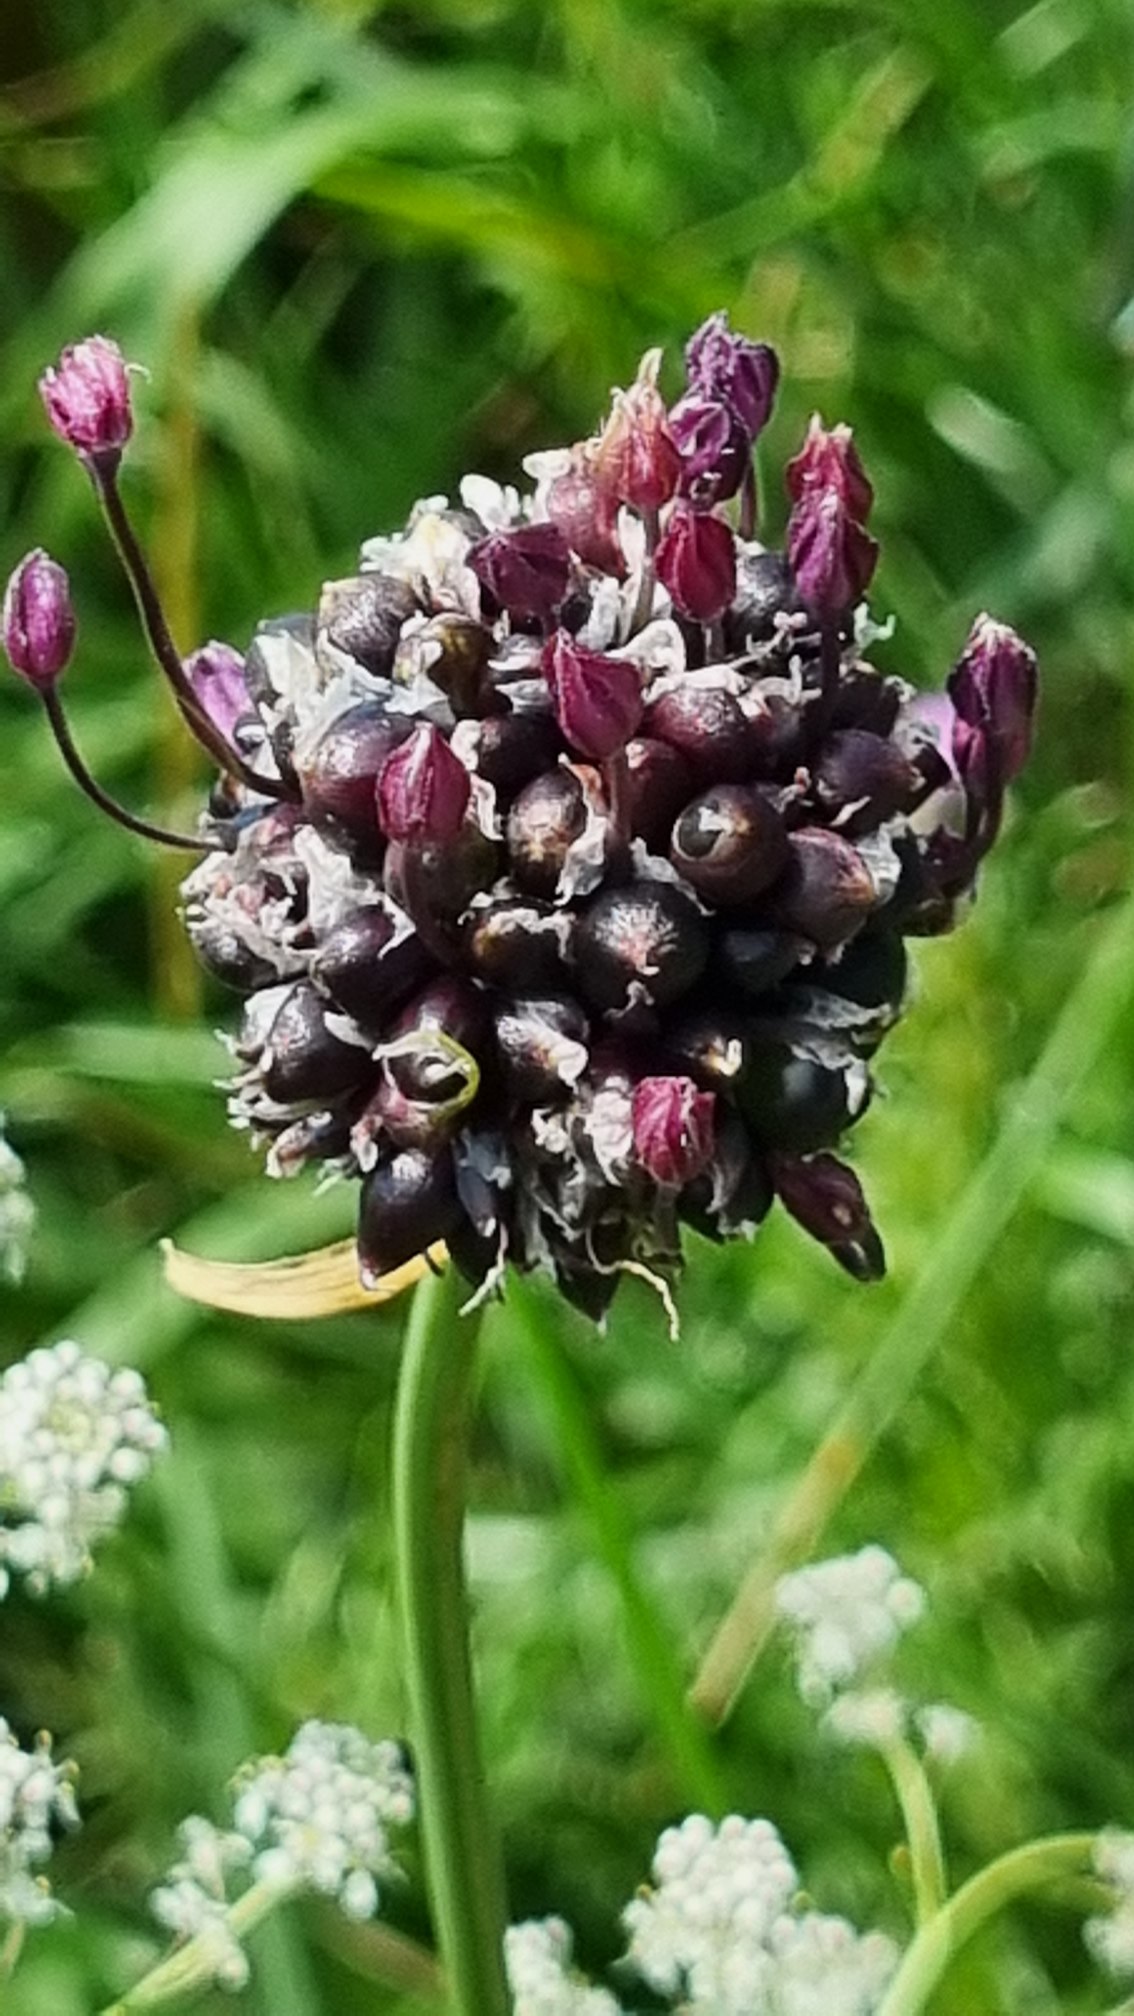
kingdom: Plantae
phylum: Tracheophyta
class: Liliopsida
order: Asparagales
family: Amaryllidaceae
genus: Allium
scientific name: Allium scorodoprasum
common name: Skov-løg
